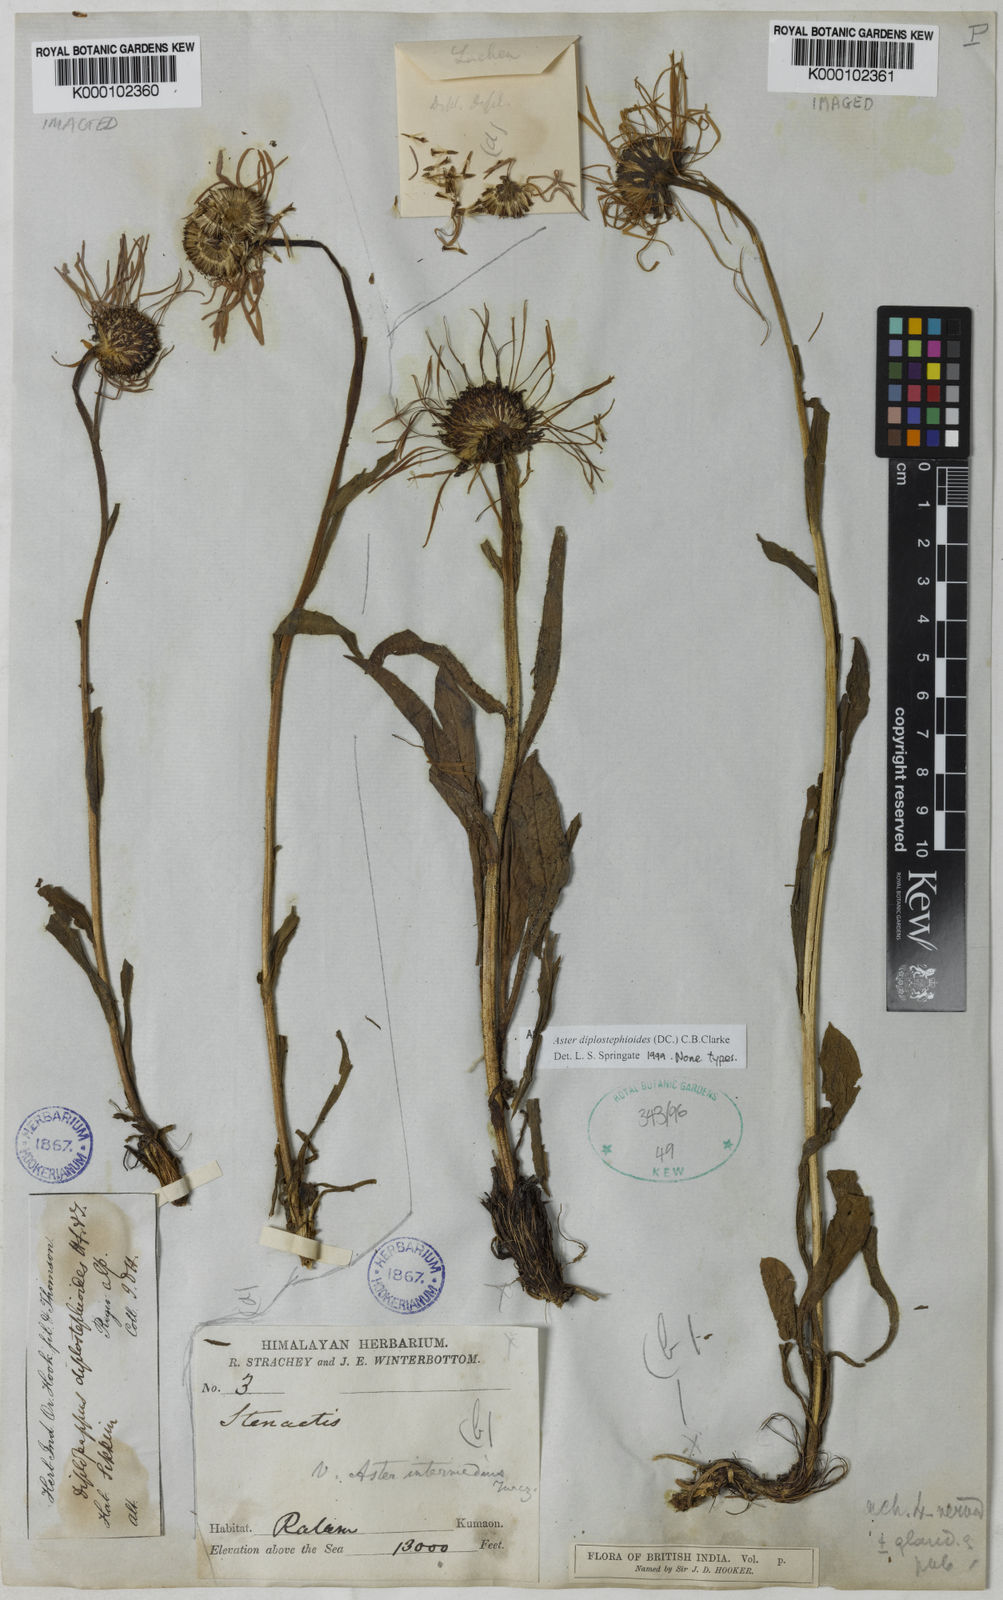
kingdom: Plantae
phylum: Tracheophyta
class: Magnoliopsida
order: Asterales
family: Asteraceae
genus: Tibetiodes
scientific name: Tibetiodes diplostephioides
